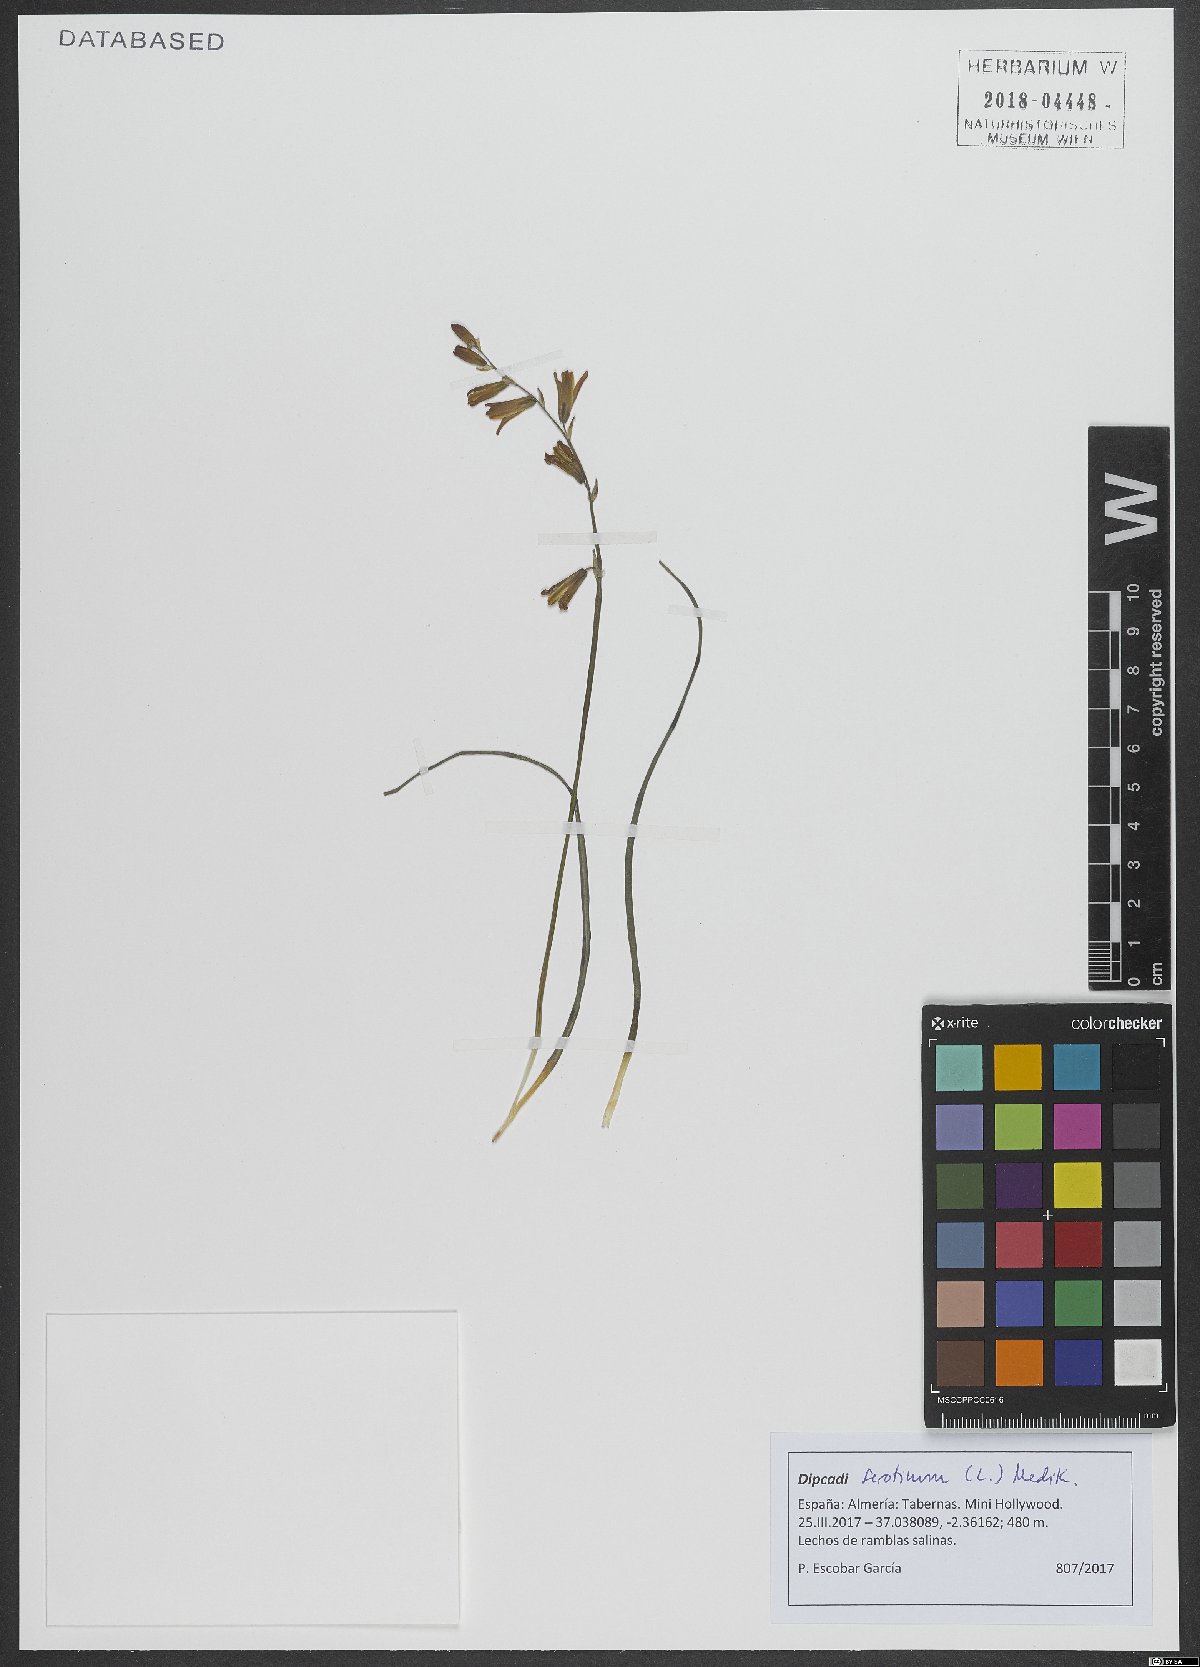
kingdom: Plantae
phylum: Tracheophyta
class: Liliopsida
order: Asparagales
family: Asparagaceae
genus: Dipcadi
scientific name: Dipcadi serotinum
